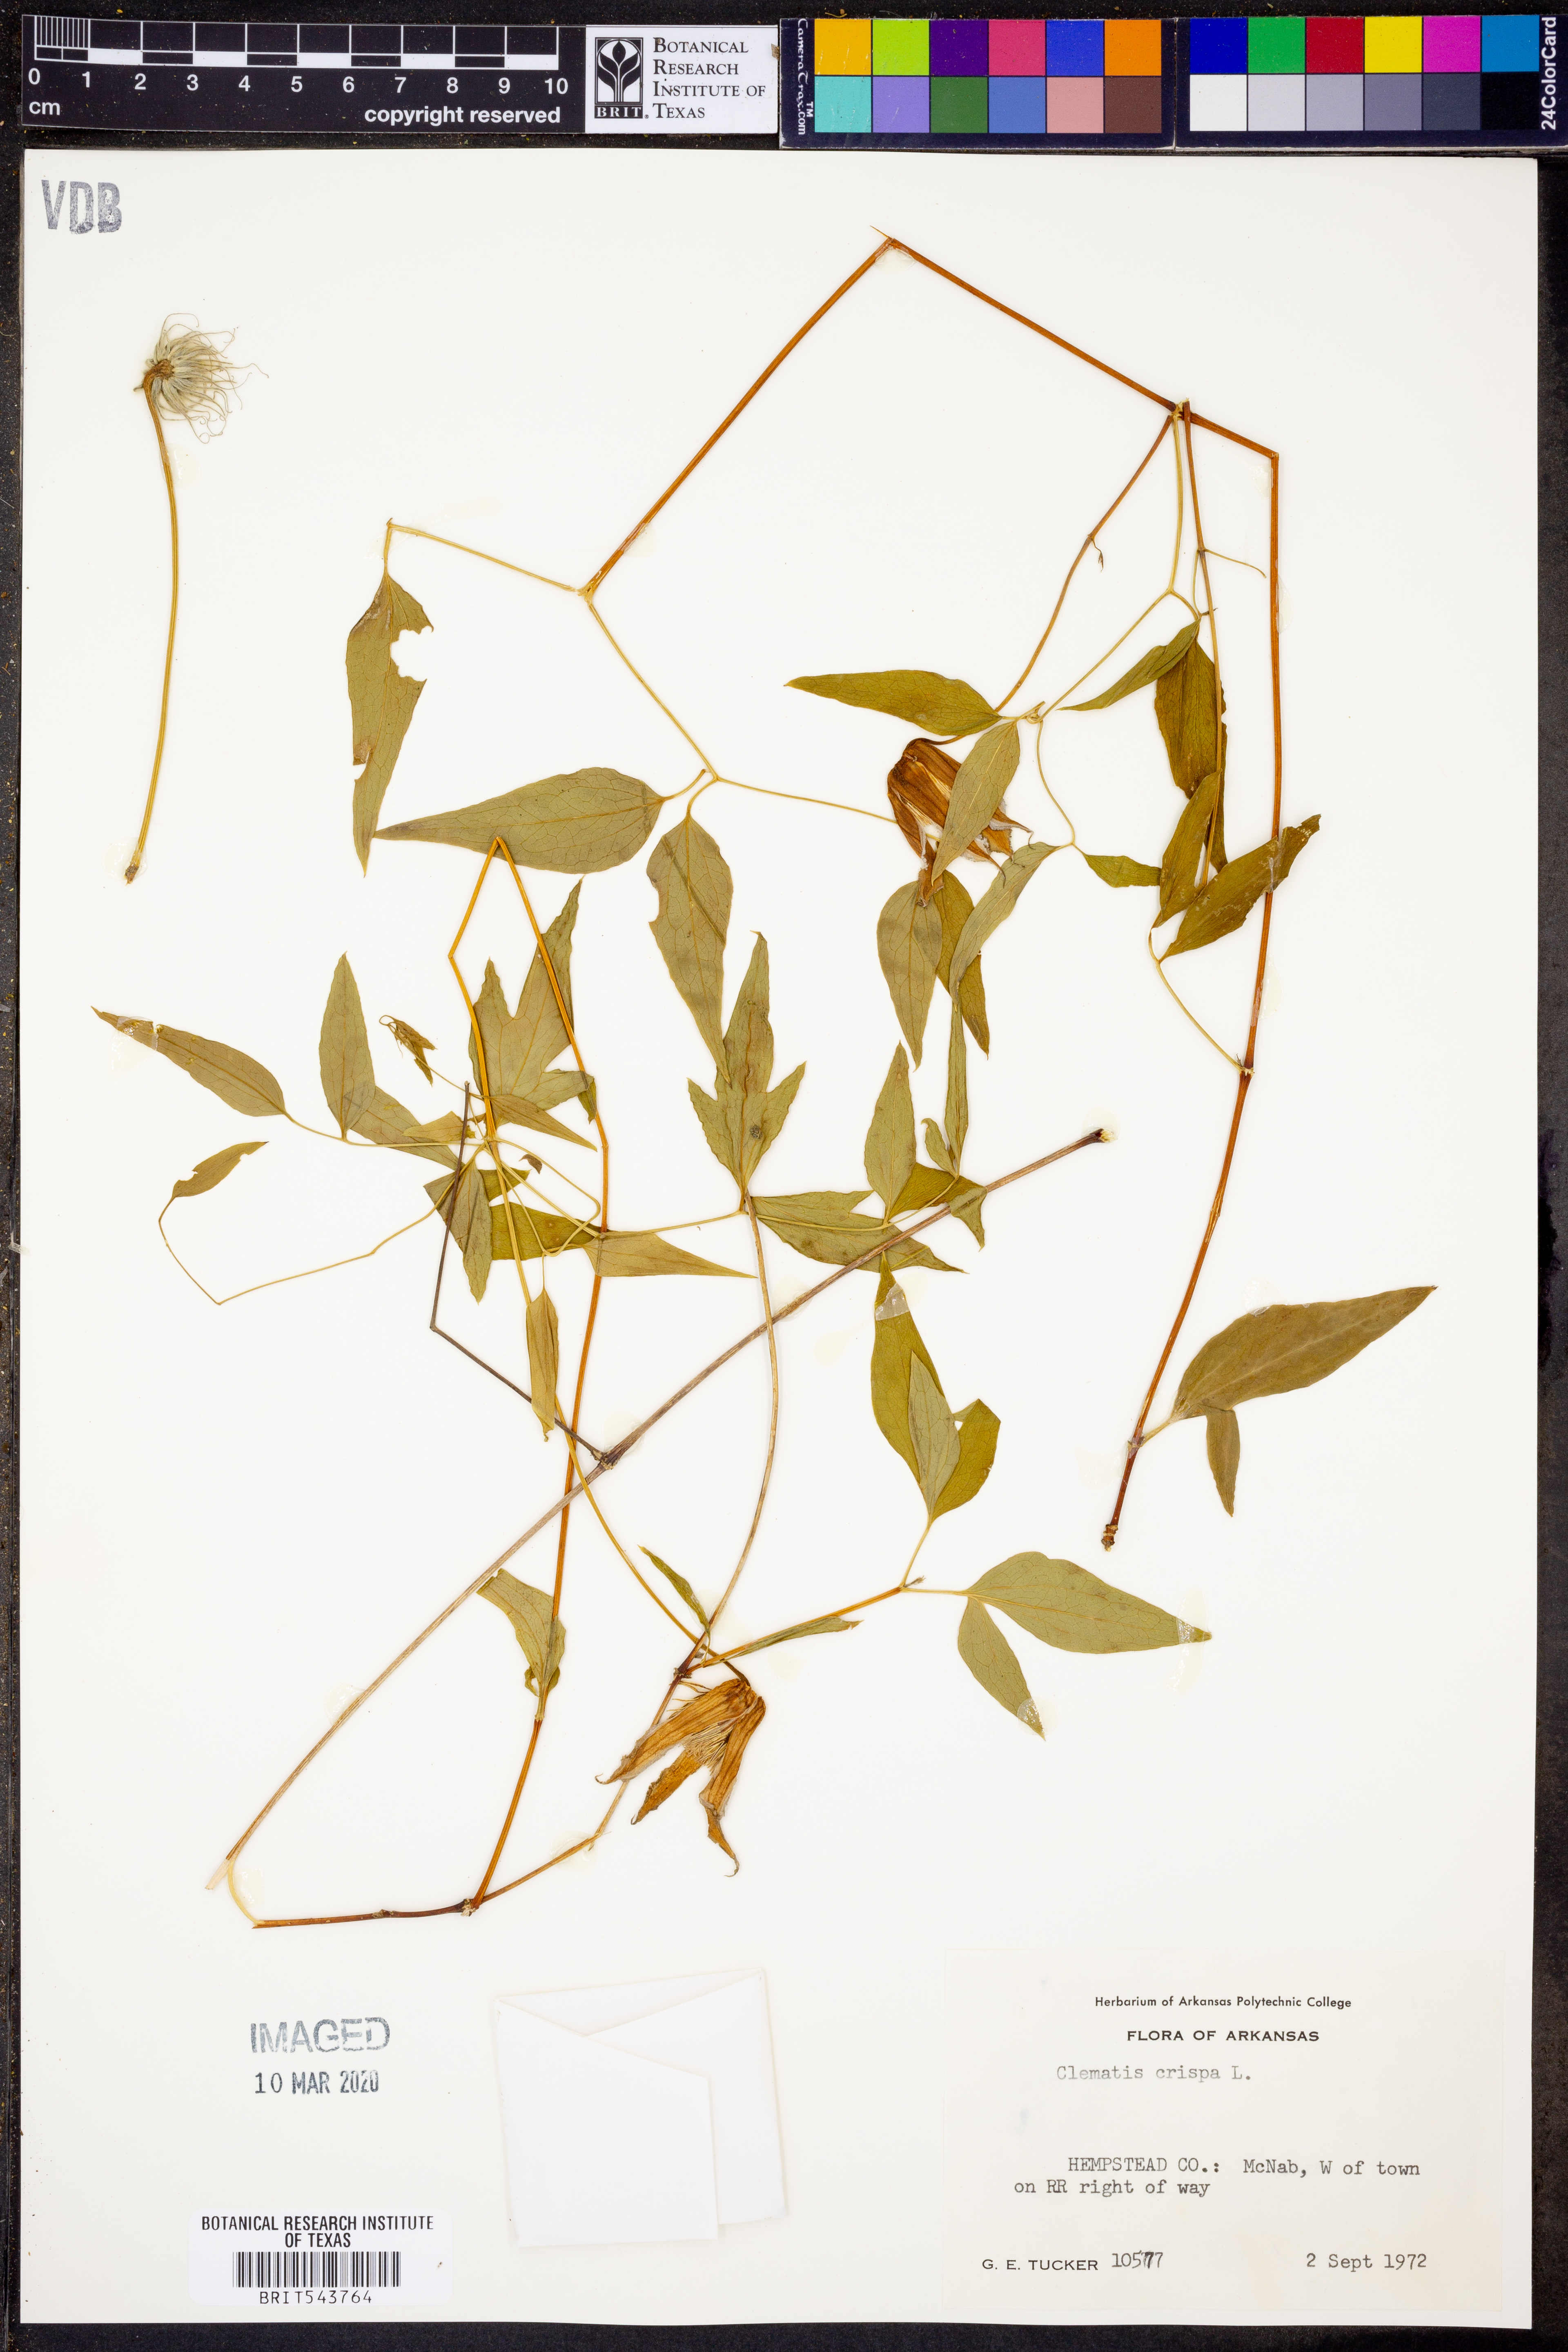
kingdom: Plantae
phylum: Tracheophyta
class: Magnoliopsida
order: Ranunculales
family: Ranunculaceae
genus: Clematis
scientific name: Clematis crispa
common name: Curly clematis
